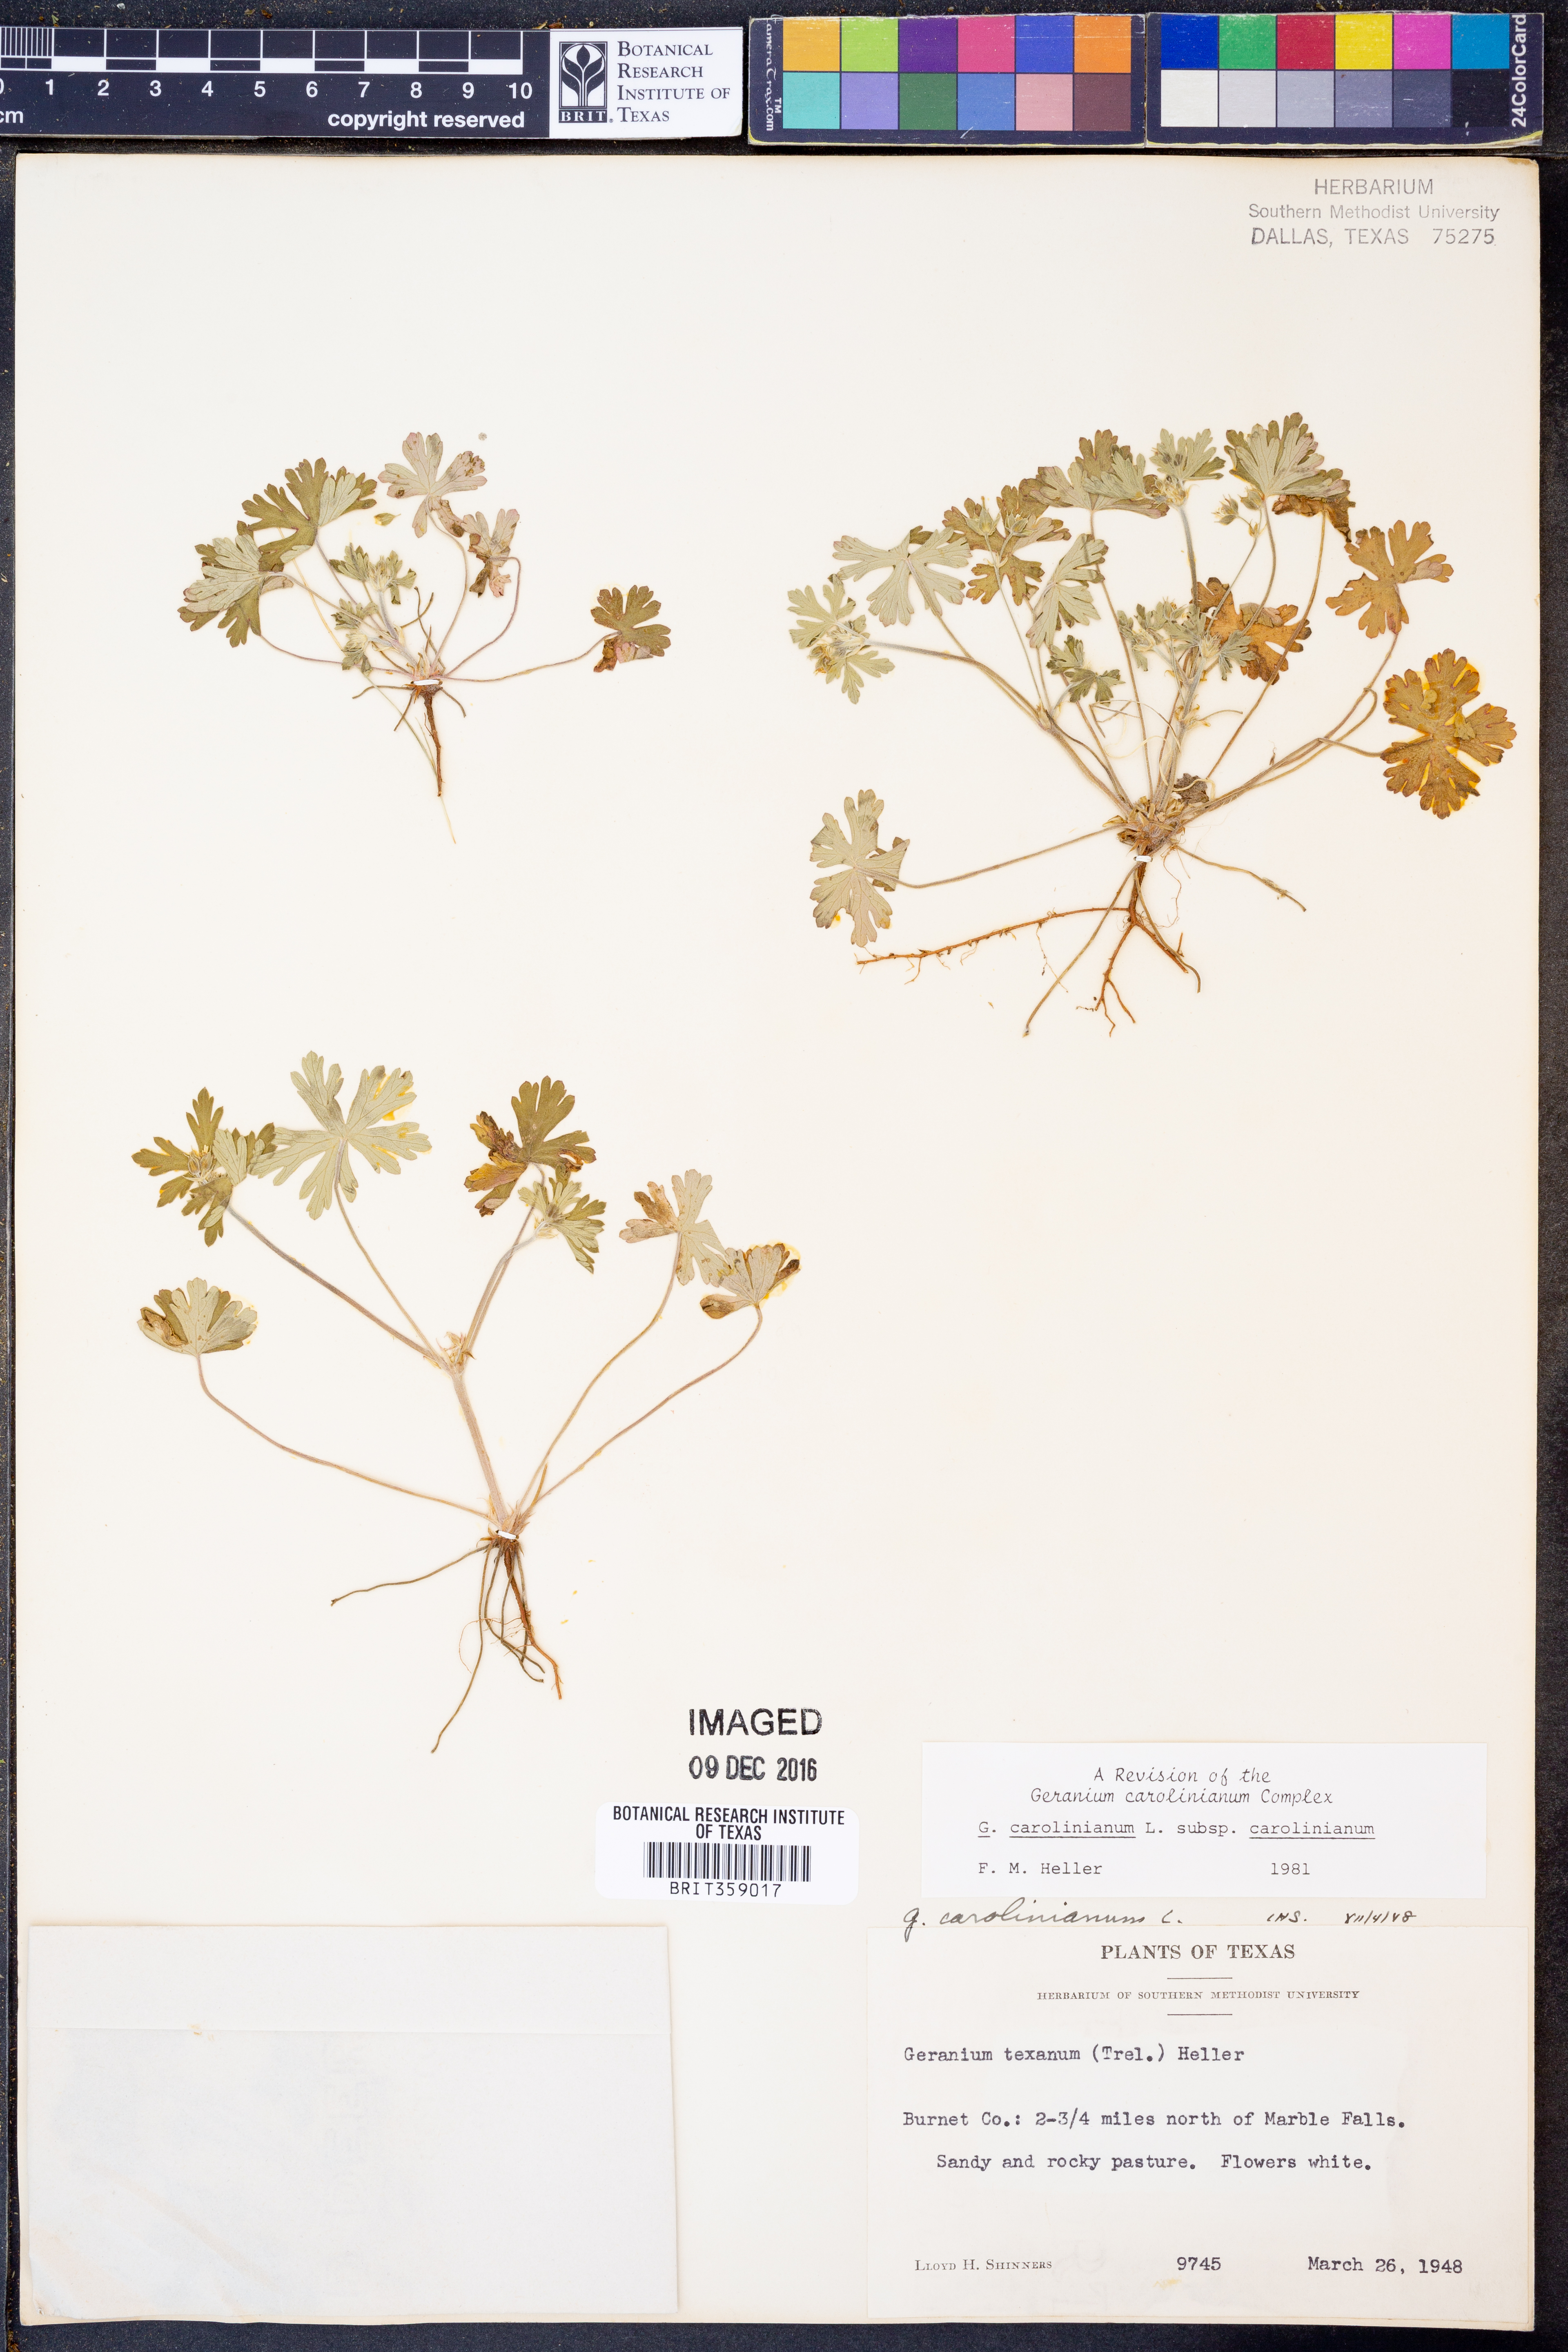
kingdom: Plantae
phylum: Tracheophyta
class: Magnoliopsida
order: Geraniales
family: Geraniaceae
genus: Geranium
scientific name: Geranium carolinianum
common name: Carolina crane's-bill
